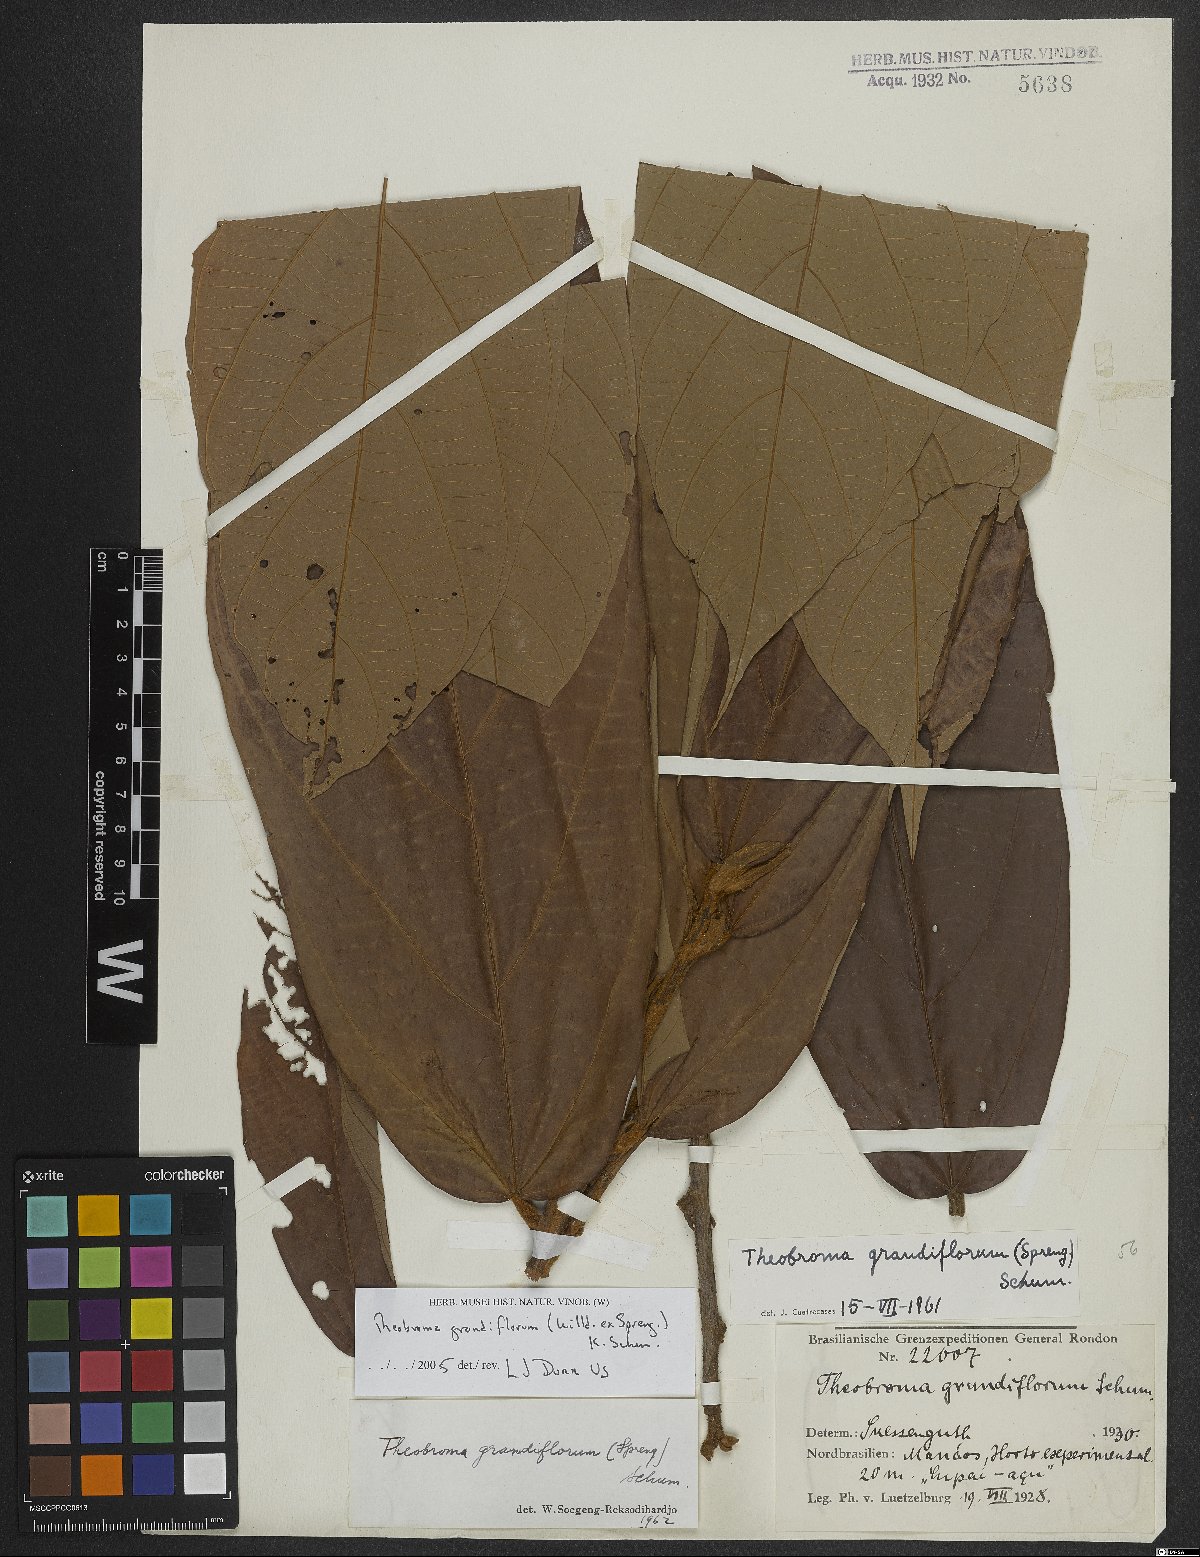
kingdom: Plantae
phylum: Tracheophyta
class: Magnoliopsida
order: Malvales
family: Malvaceae
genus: Theobroma
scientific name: Theobroma grandiflorum
